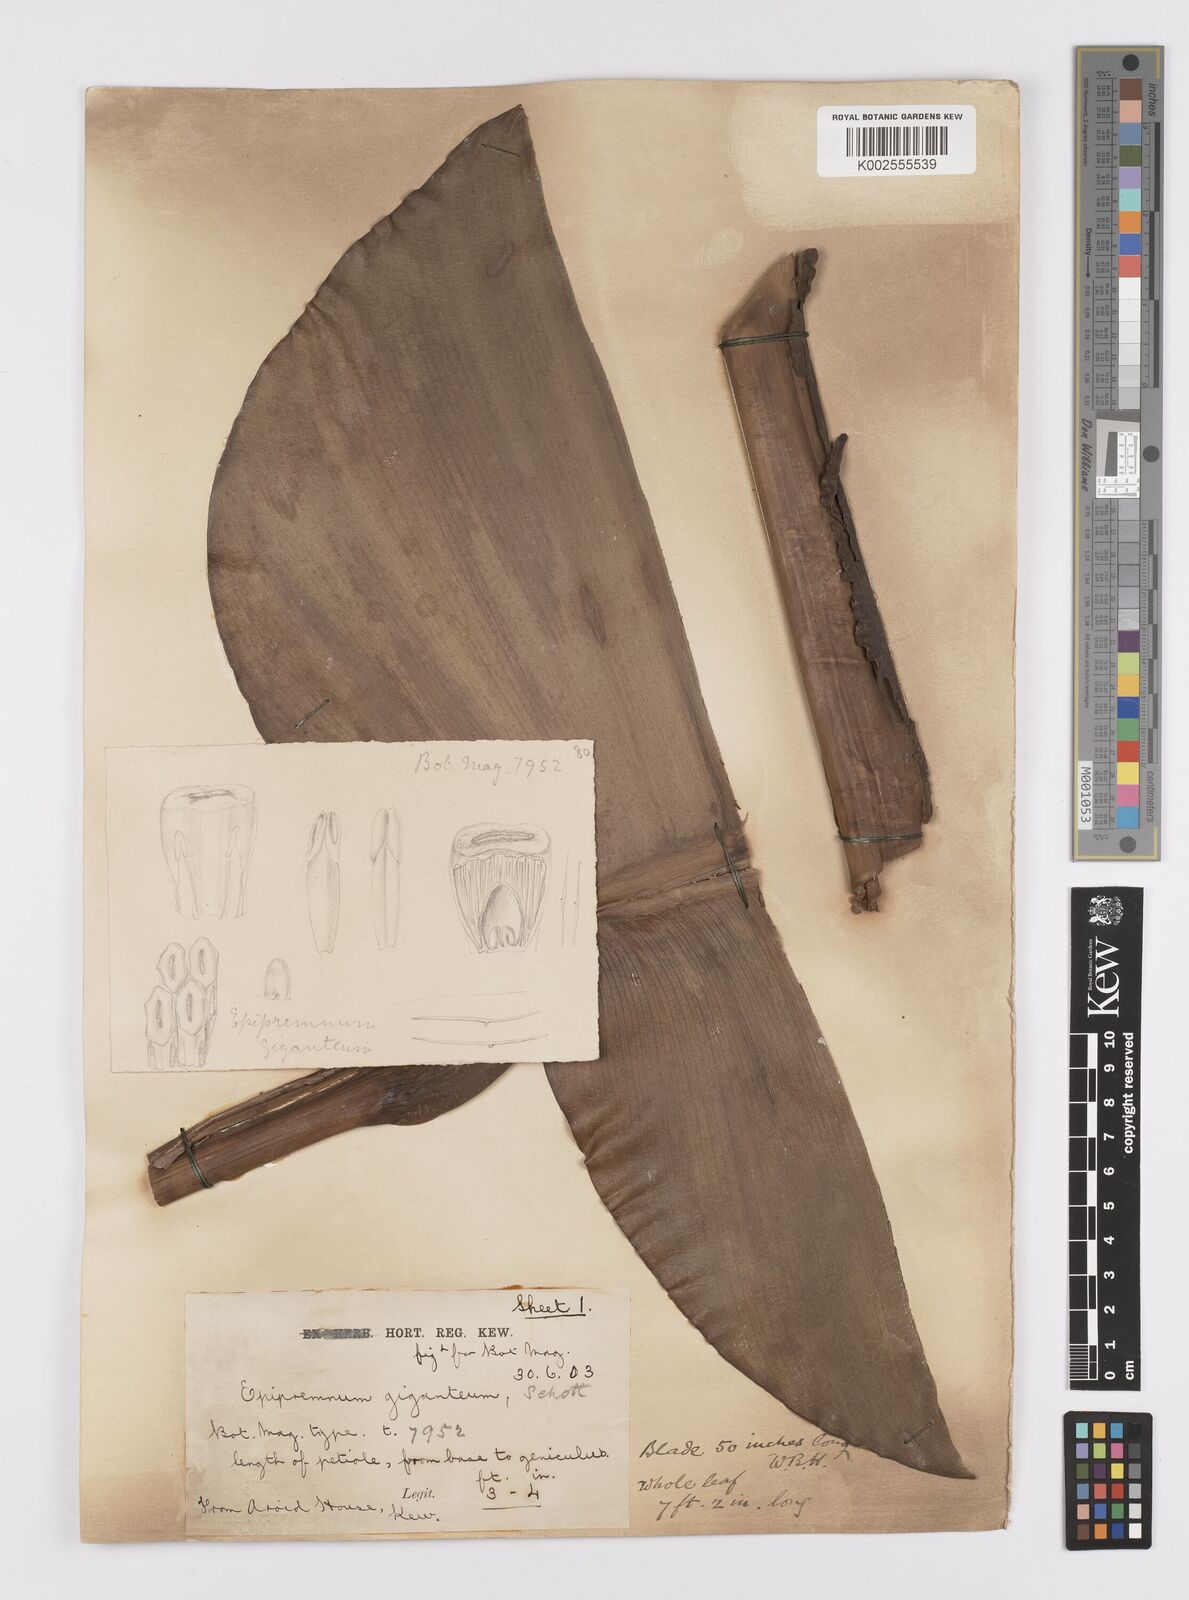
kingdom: Plantae
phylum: Tracheophyta
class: Liliopsida
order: Alismatales
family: Araceae
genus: Epipremnum
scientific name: Epipremnum giganteum
